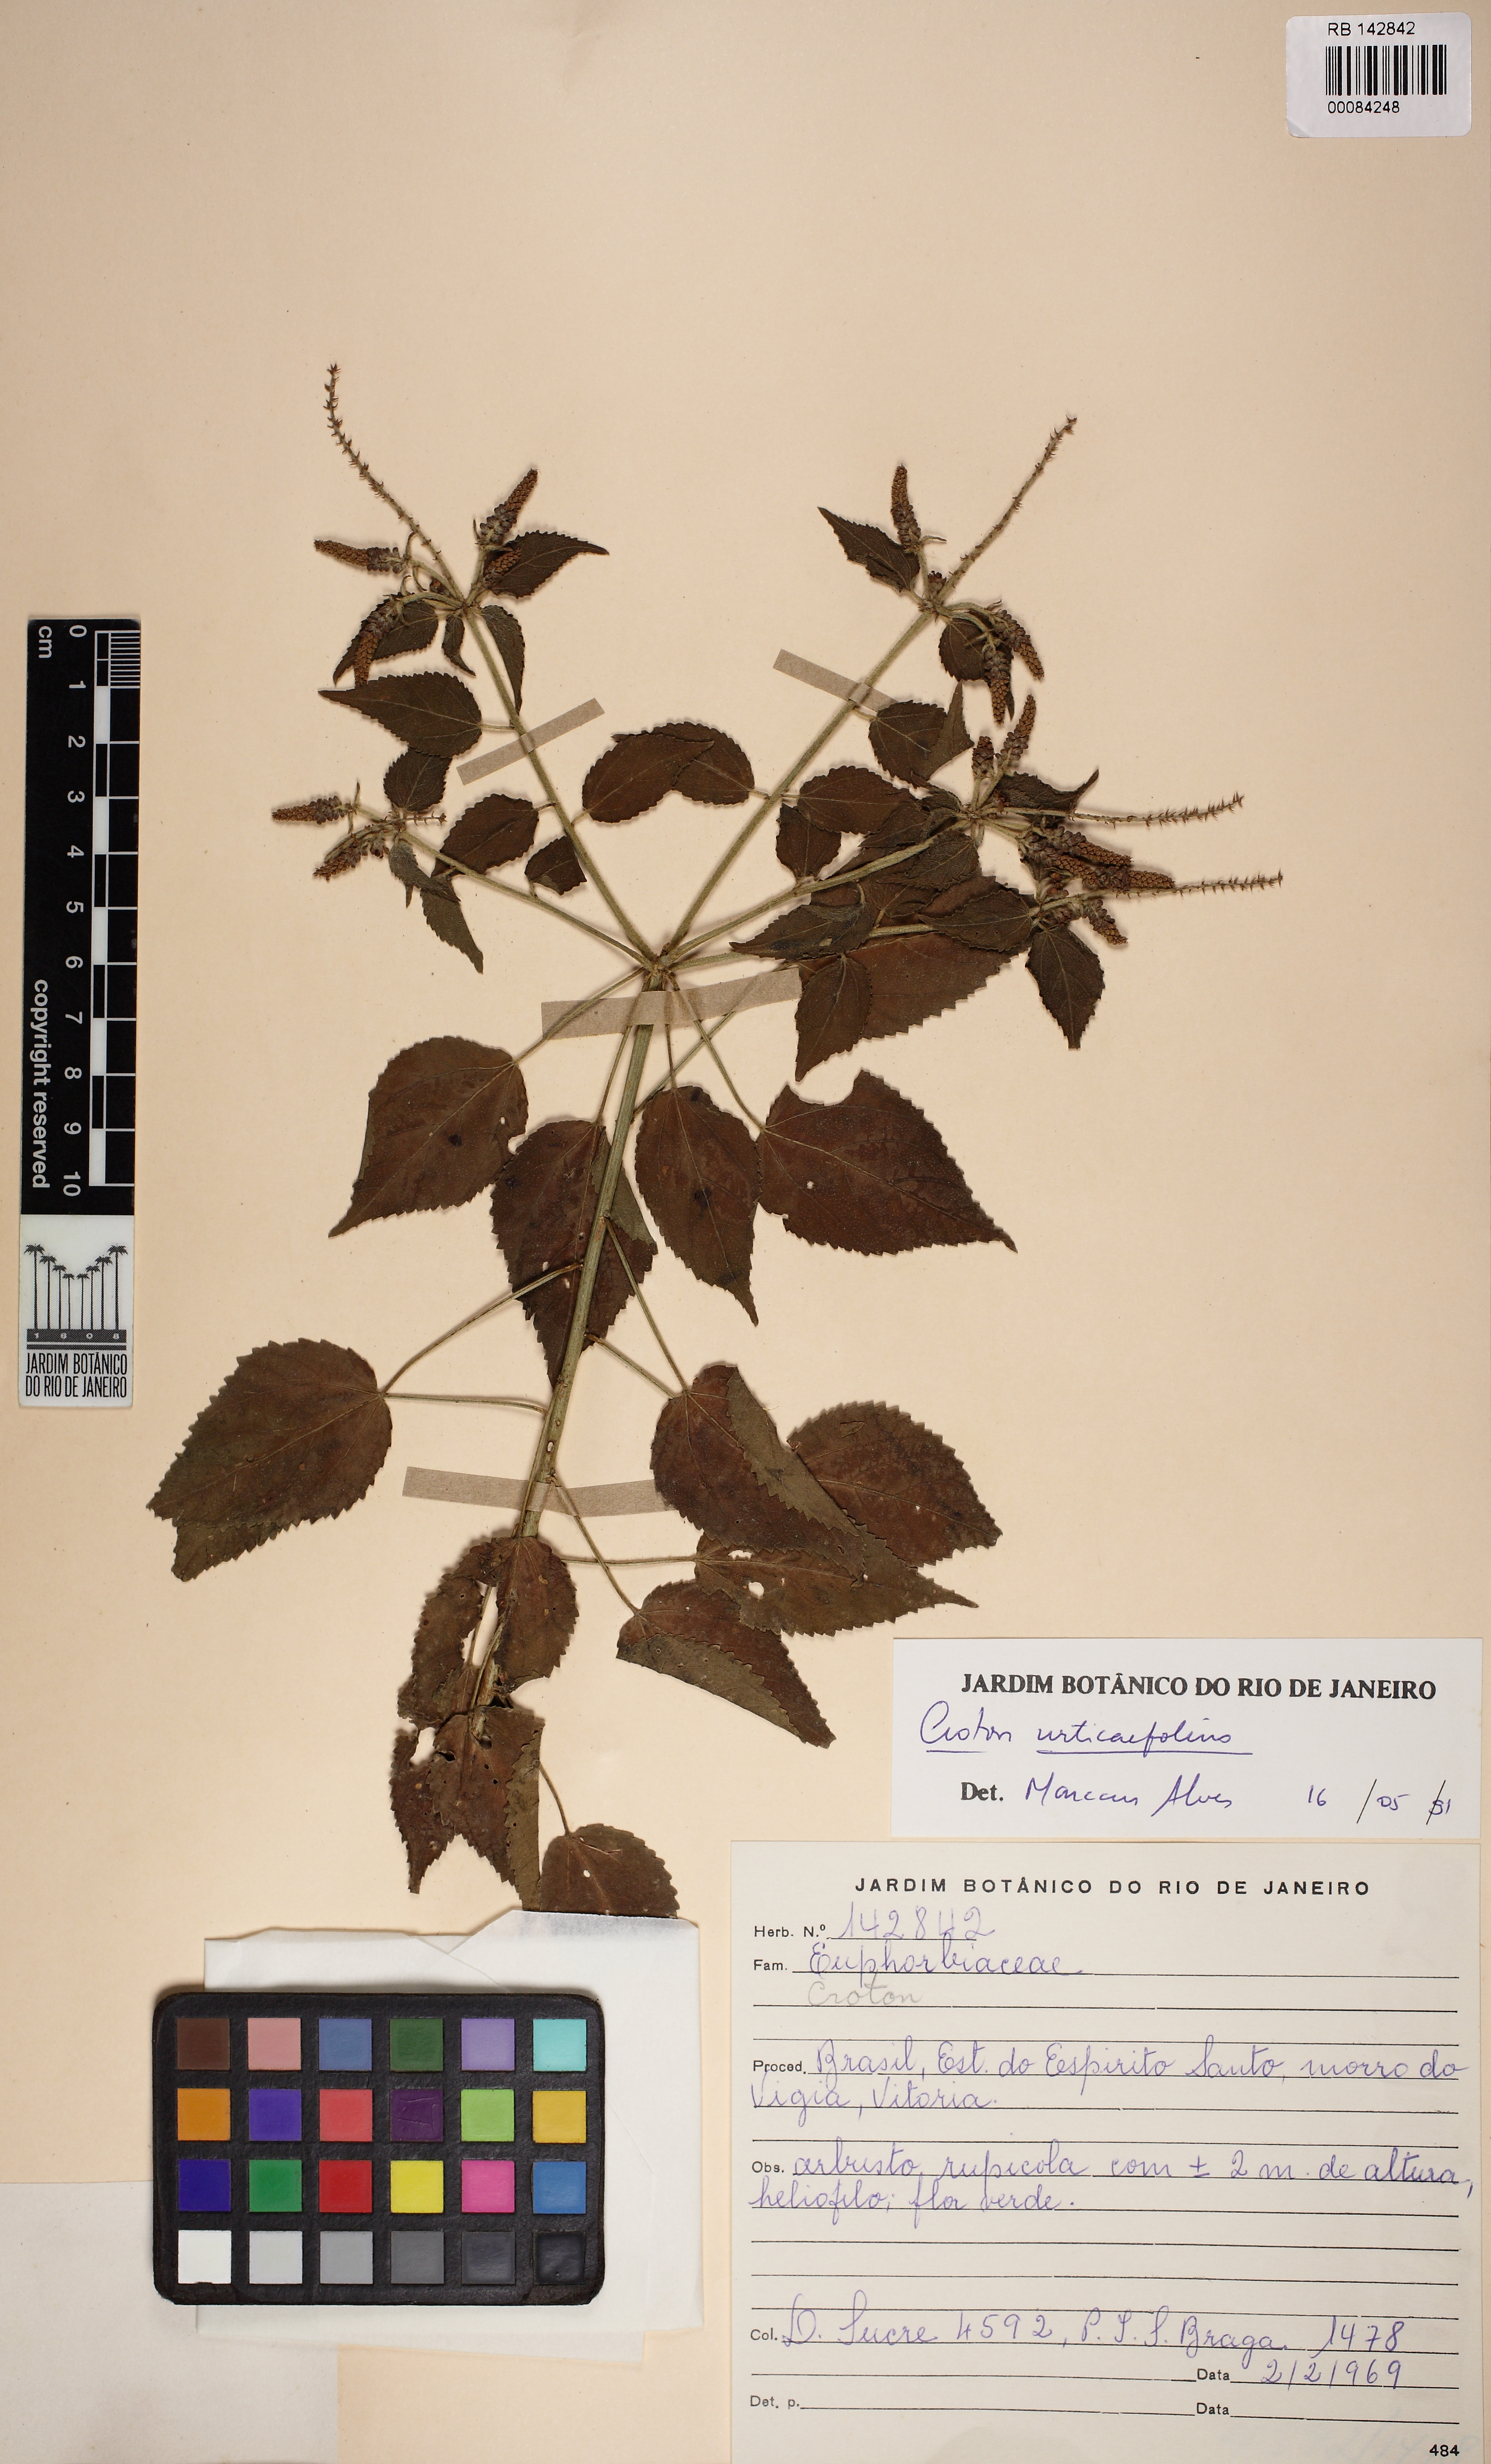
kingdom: Plantae
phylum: Tracheophyta
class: Magnoliopsida
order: Malpighiales
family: Euphorbiaceae
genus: Croton
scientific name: Croton urticifolius
